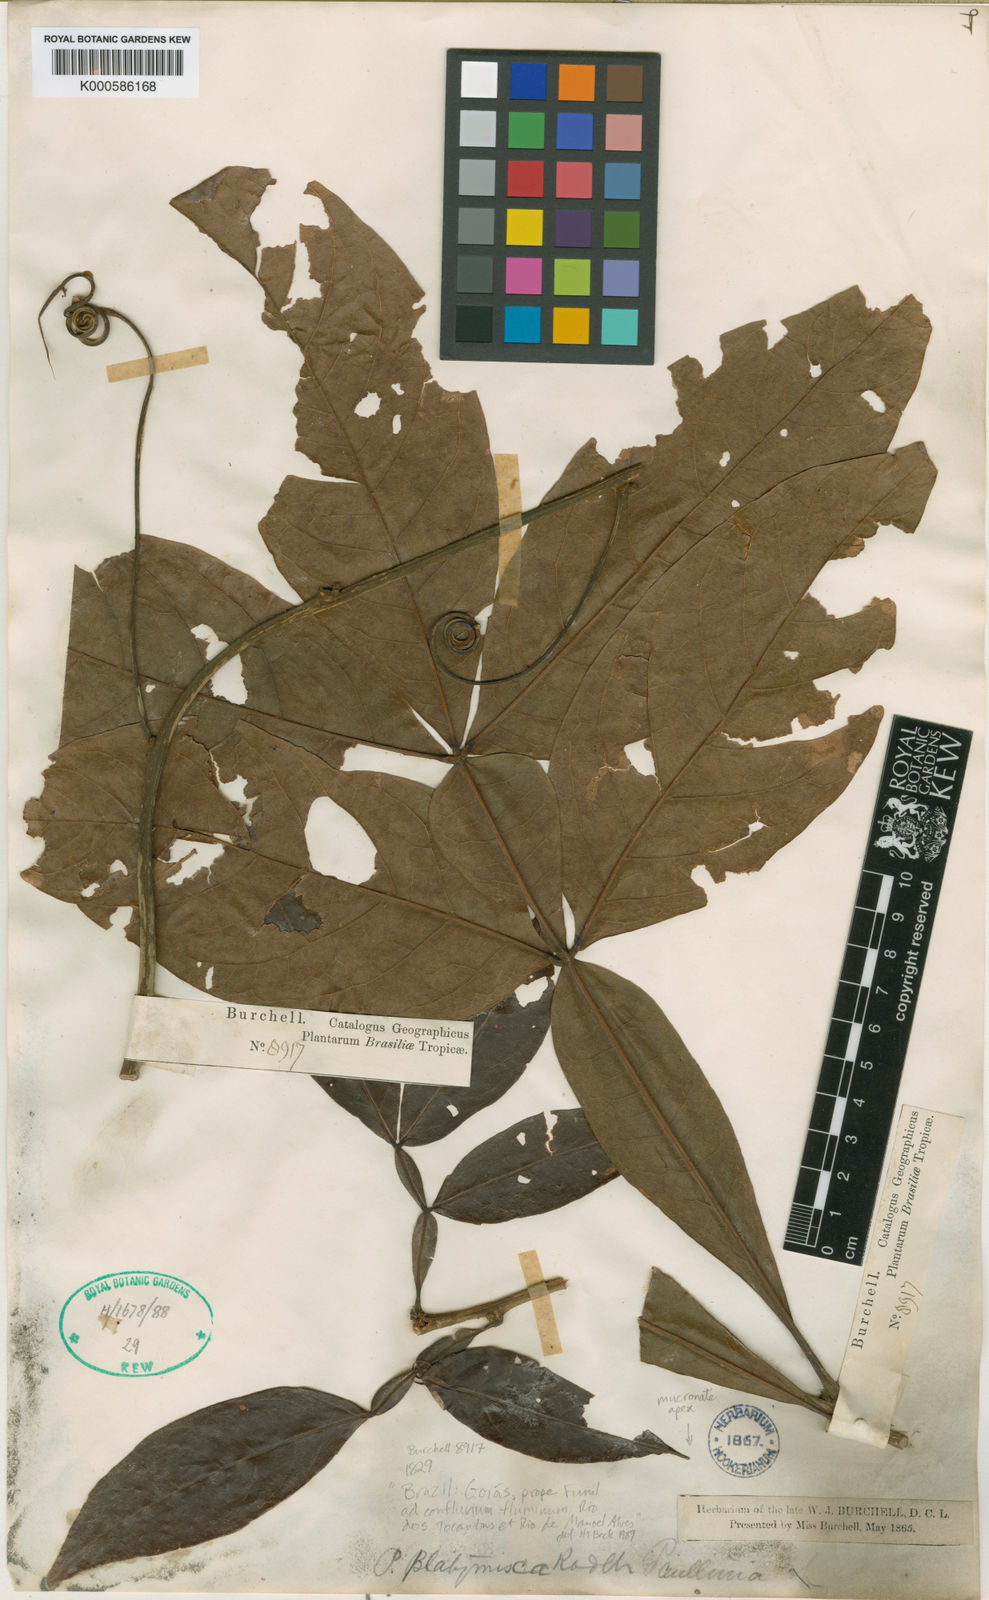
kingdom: Plantae
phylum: Tracheophyta
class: Magnoliopsida
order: Sapindales
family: Sapindaceae
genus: Paullinia
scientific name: Paullinia platymisca
